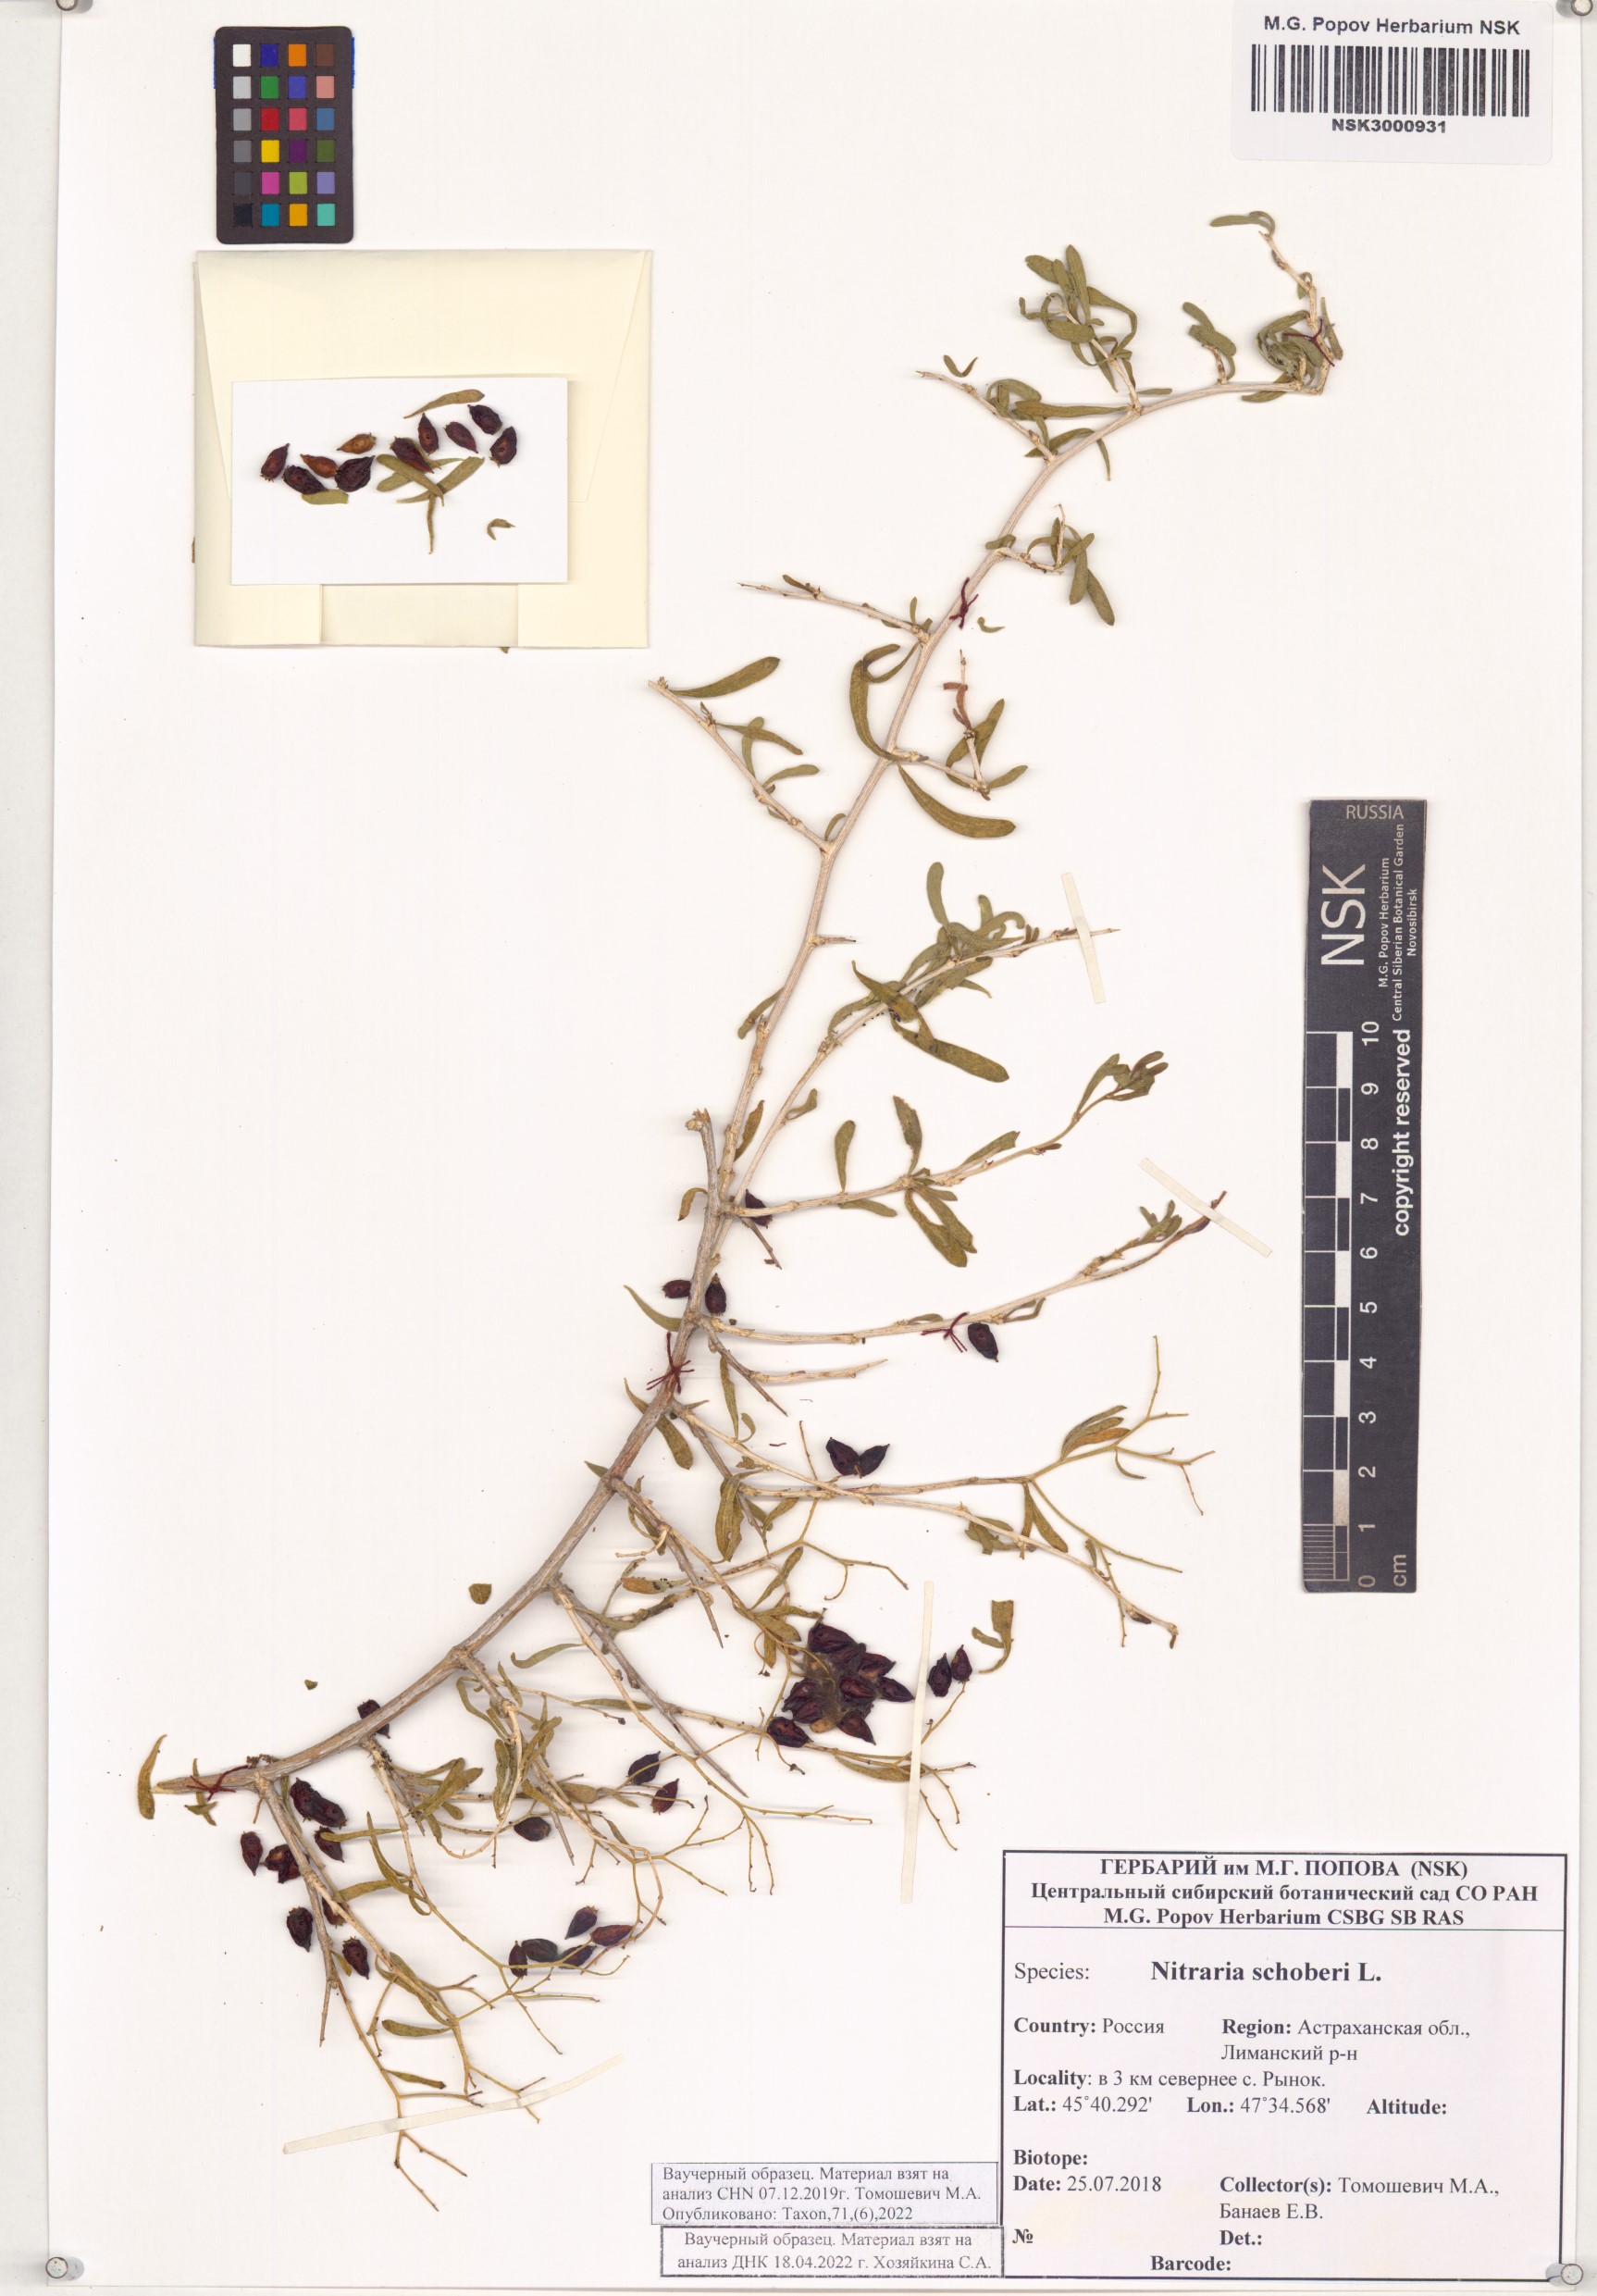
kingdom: Plantae
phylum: Tracheophyta
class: Magnoliopsida
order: Sapindales
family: Nitrariaceae
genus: Nitraria
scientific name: Nitraria schoberi
